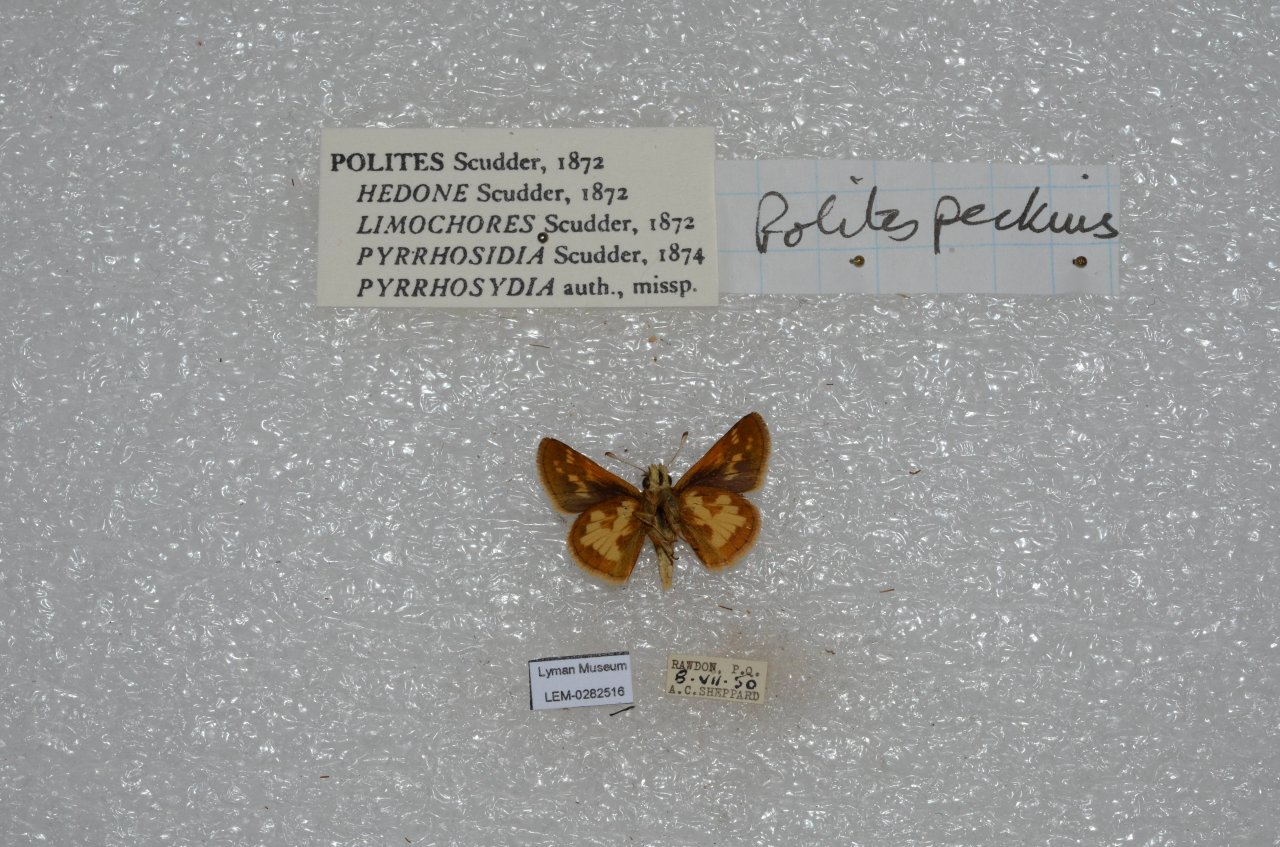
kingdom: Animalia
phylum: Arthropoda
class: Insecta
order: Lepidoptera
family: Hesperiidae
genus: Polites
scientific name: Polites coras
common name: Peck's Skipper
